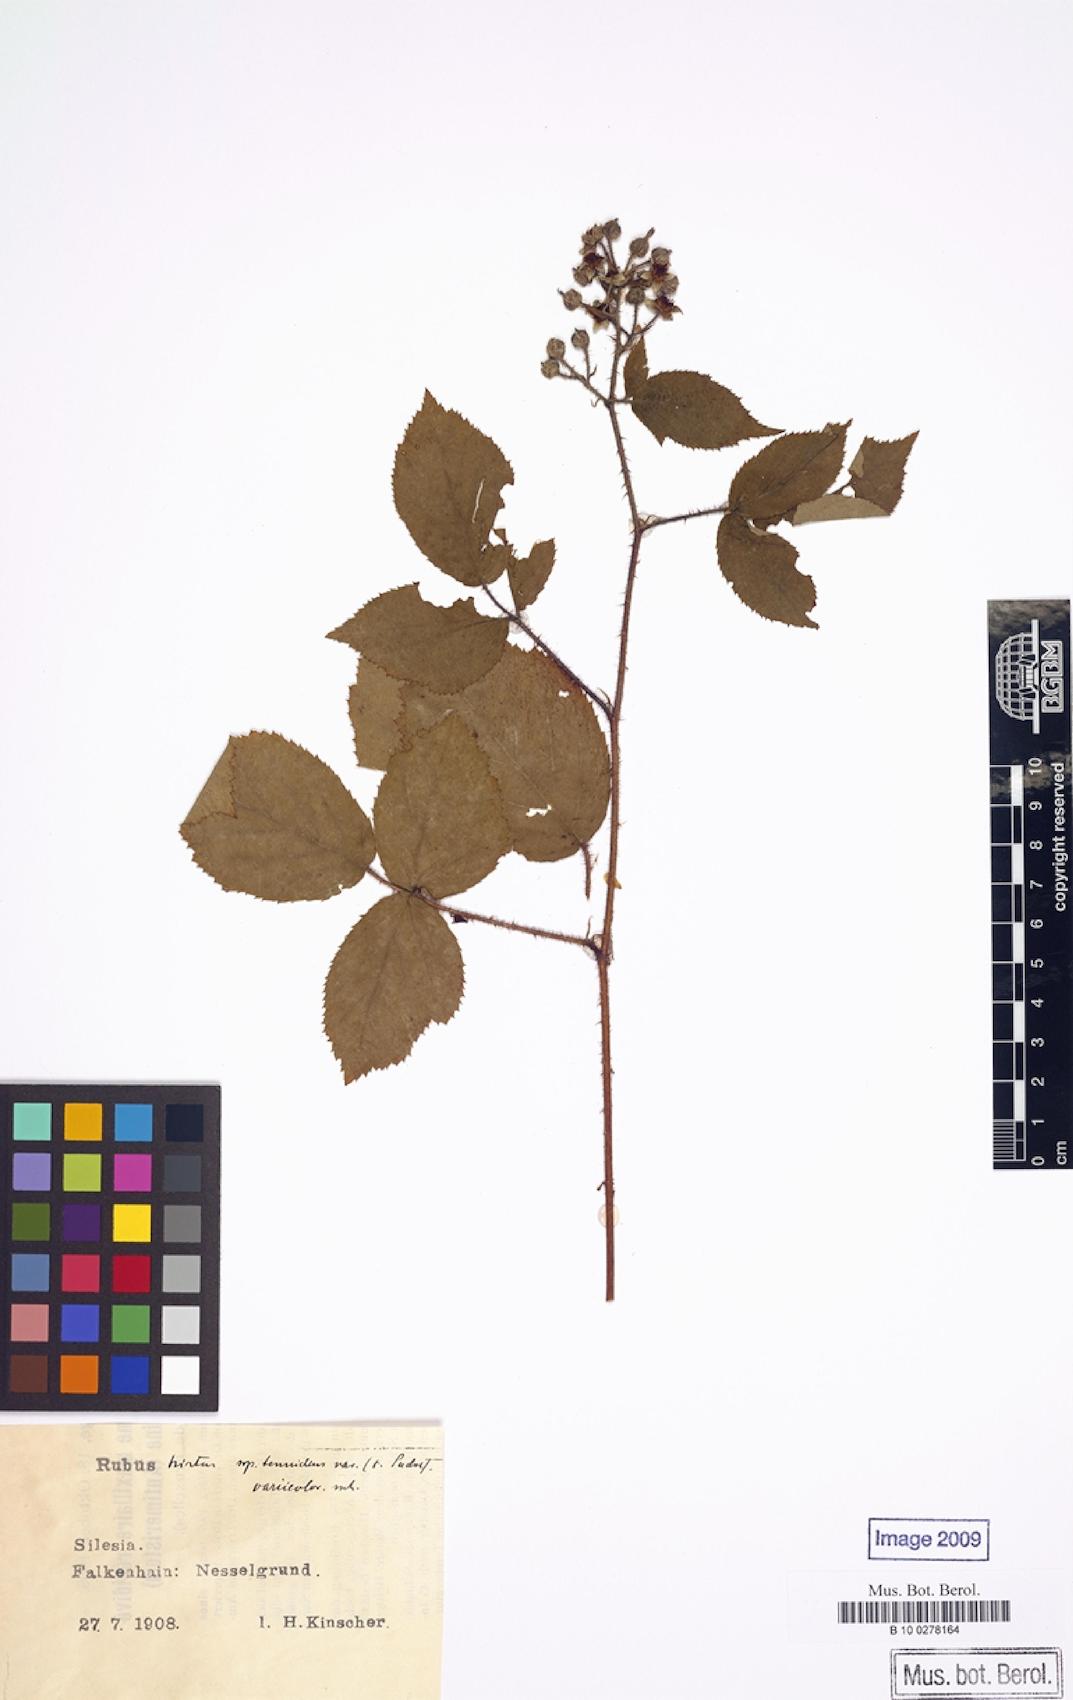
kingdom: Plantae
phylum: Tracheophyta
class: Magnoliopsida
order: Rosales
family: Rosaceae
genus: Rubus
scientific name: Rubus variicolor
